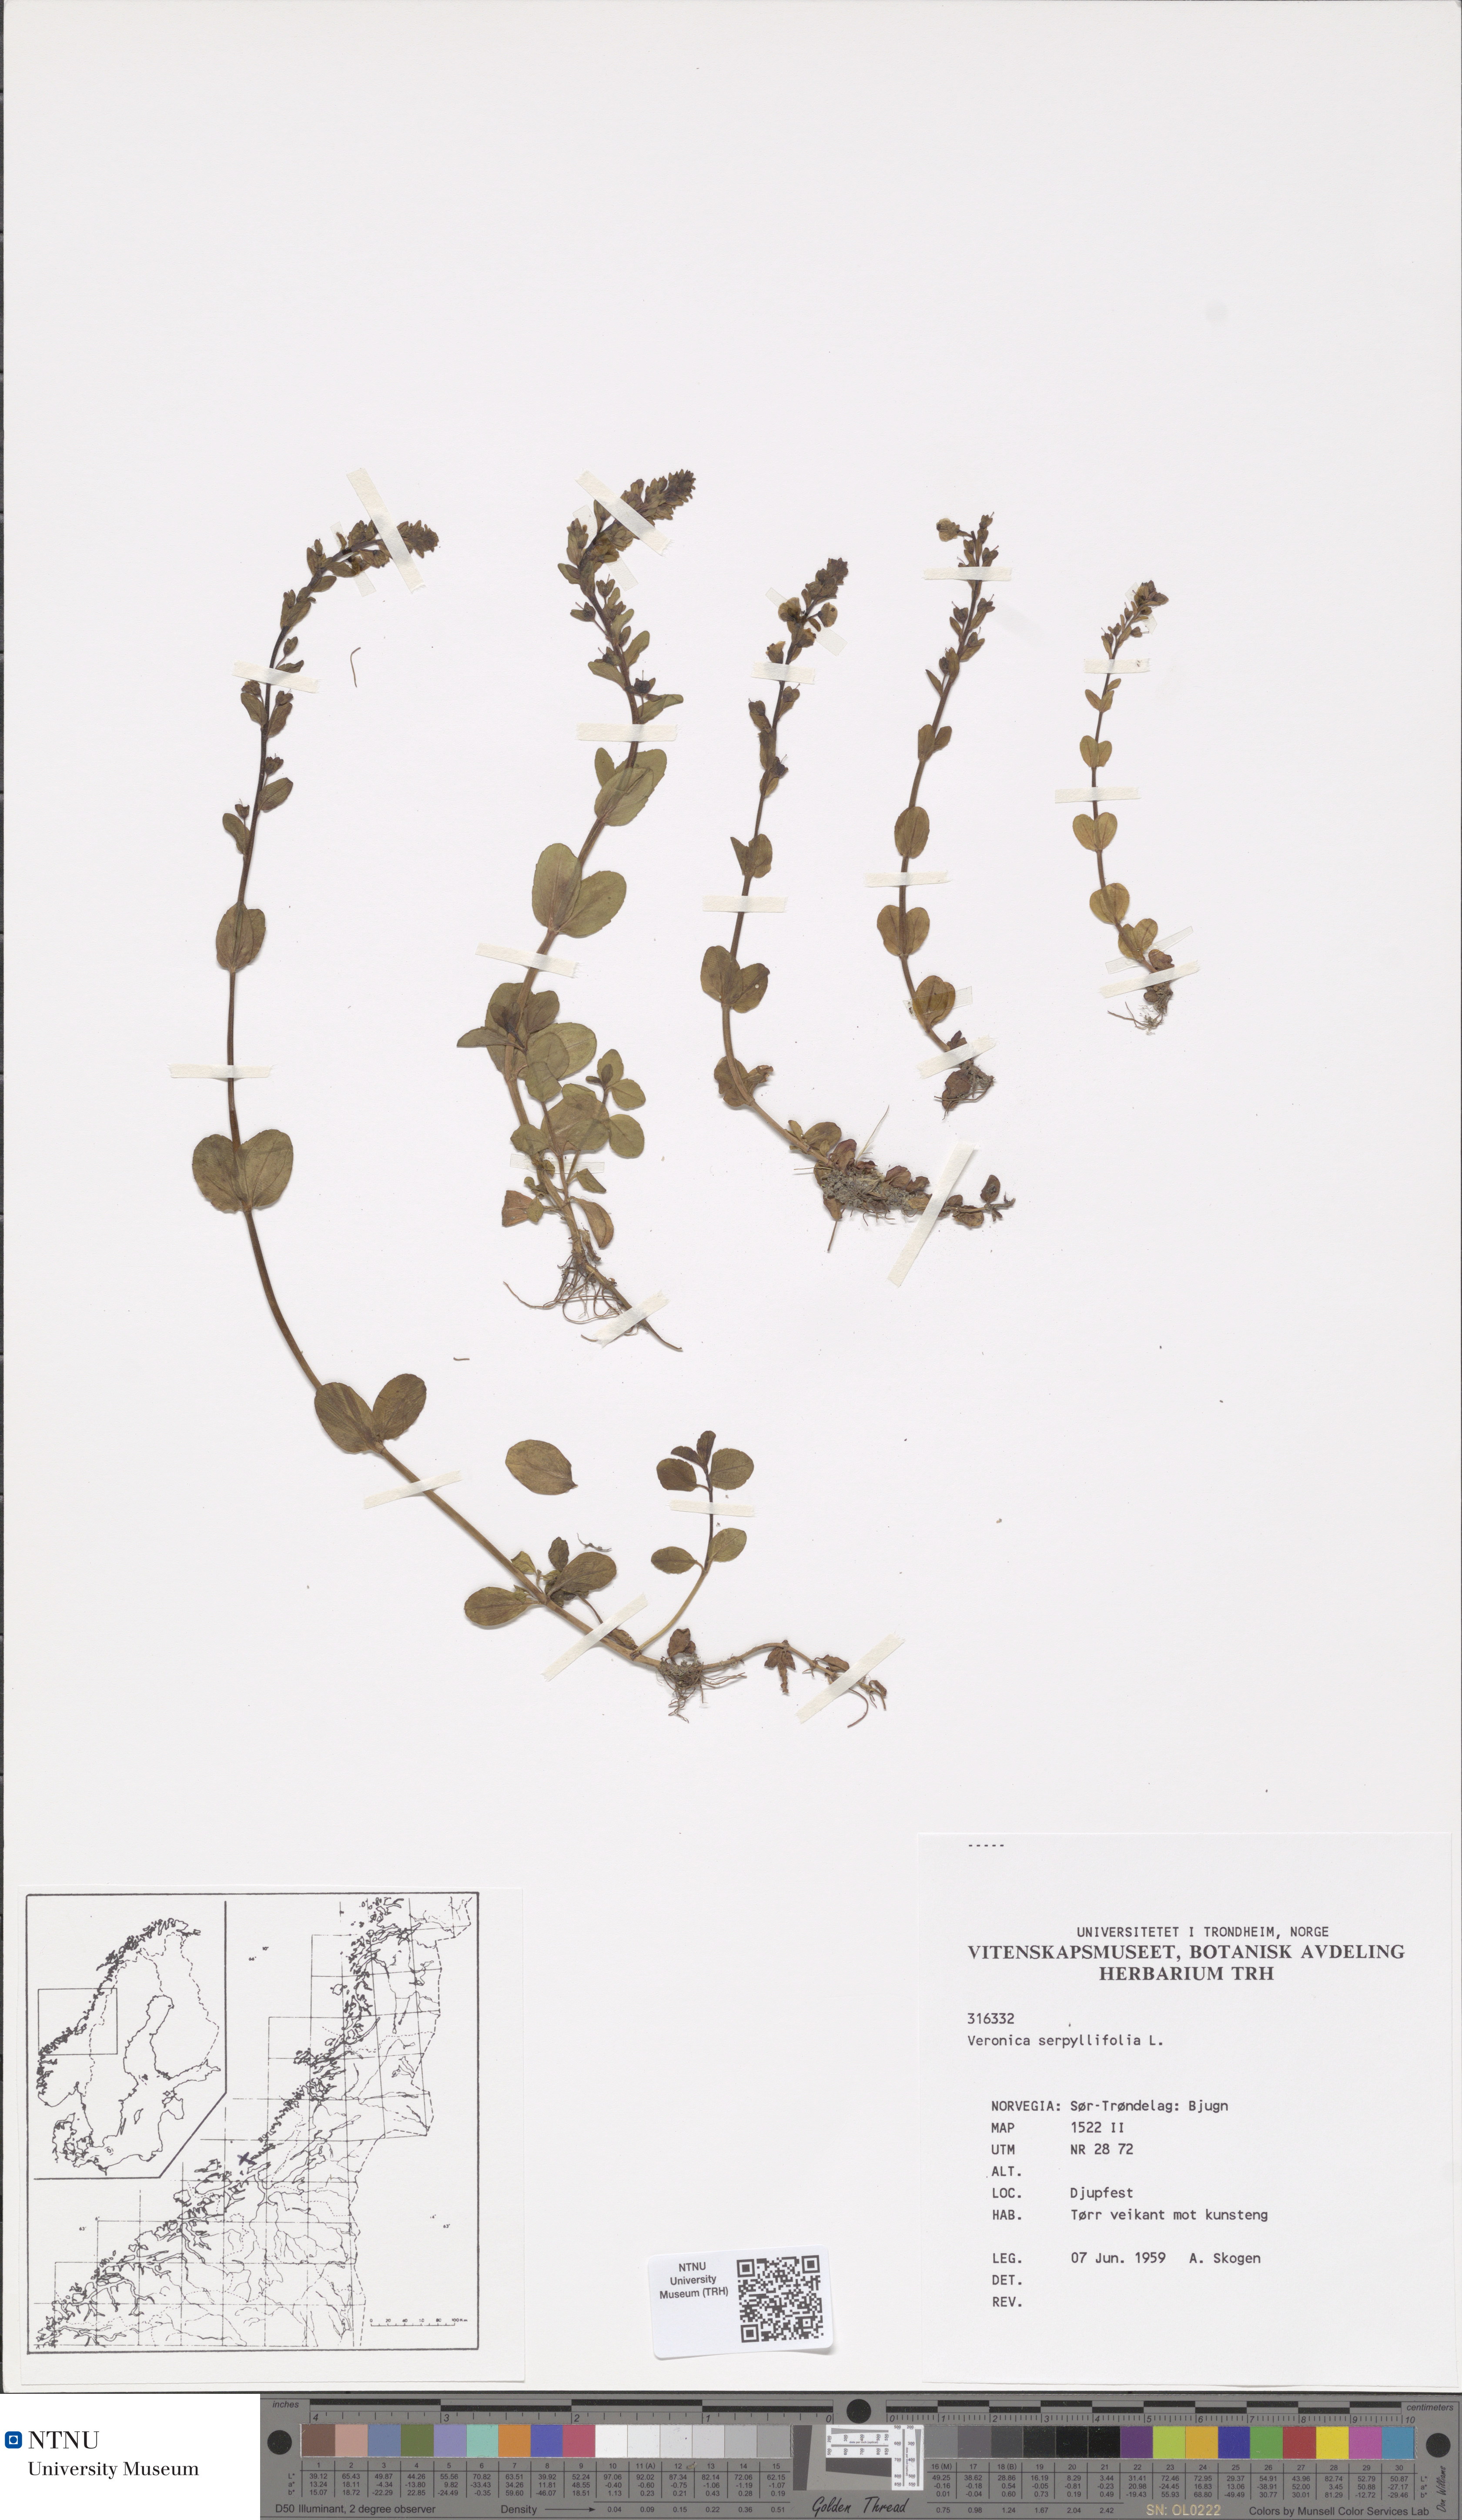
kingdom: Plantae
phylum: Tracheophyta
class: Magnoliopsida
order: Lamiales
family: Plantaginaceae
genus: Veronica
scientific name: Veronica serpyllifolia
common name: Thyme-leaved speedwell
